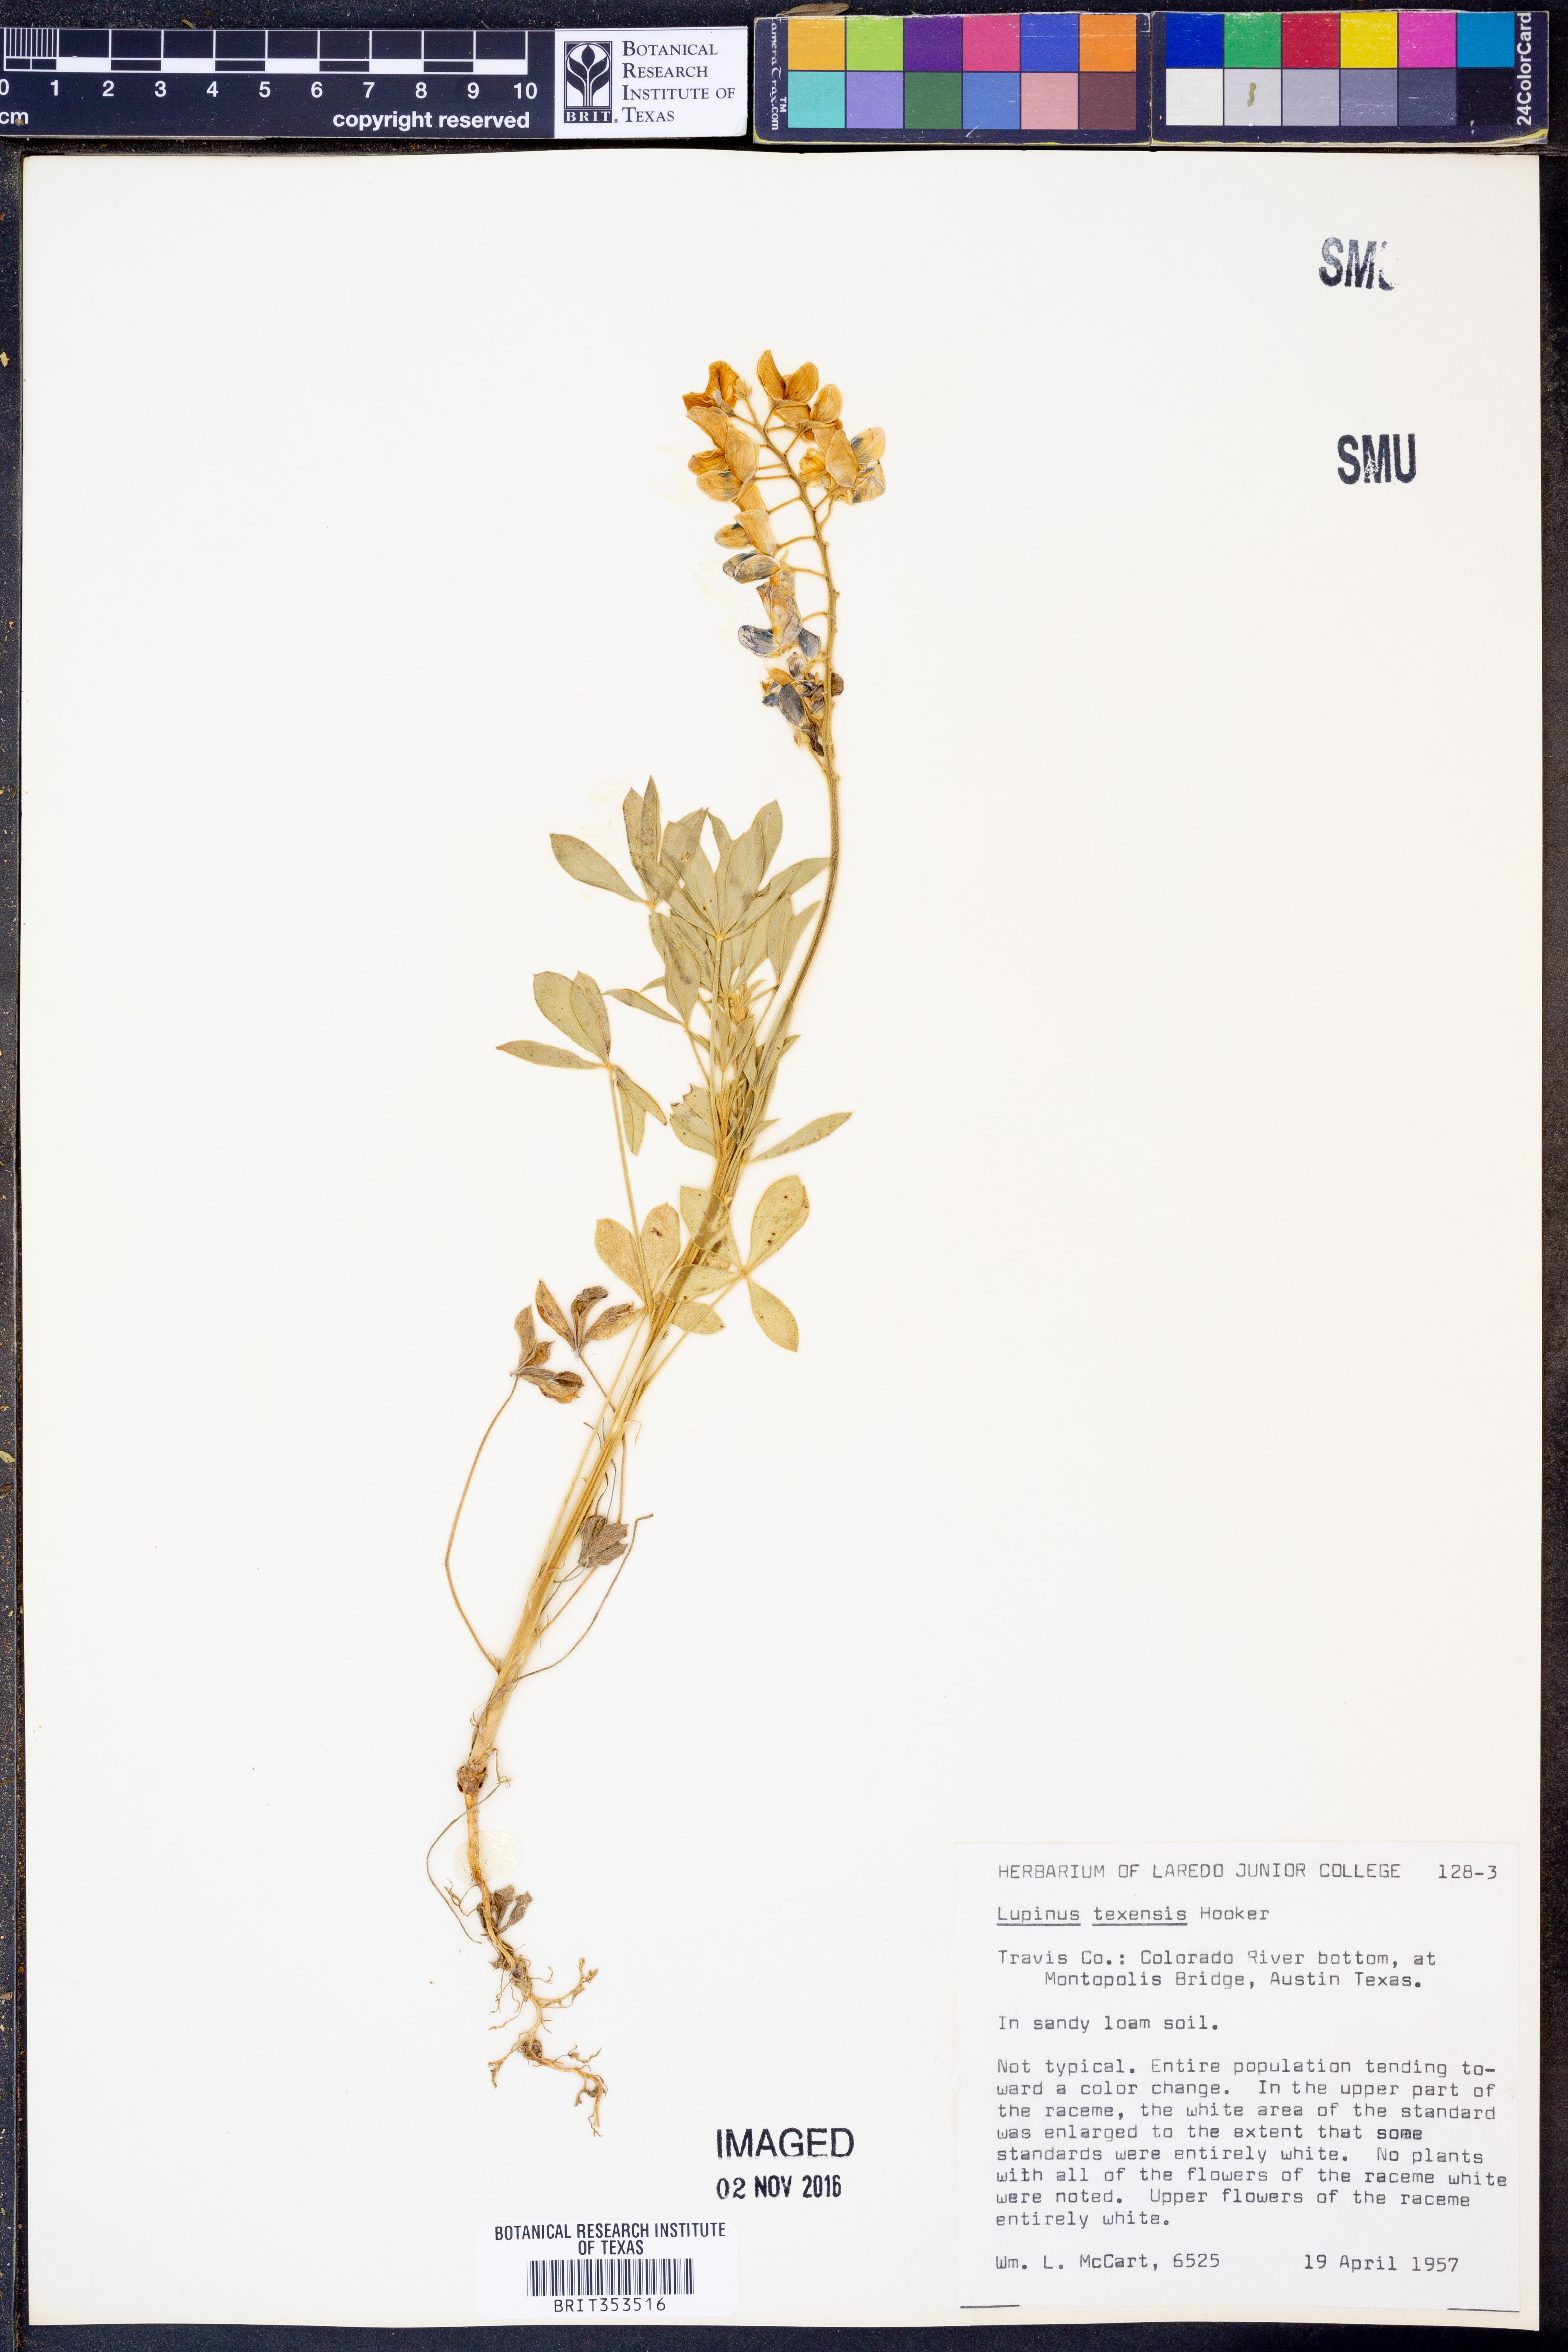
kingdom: Plantae
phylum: Tracheophyta
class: Magnoliopsida
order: Fabales
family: Fabaceae
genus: Lupinus
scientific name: Lupinus texensis
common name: Texas bluebonnet
